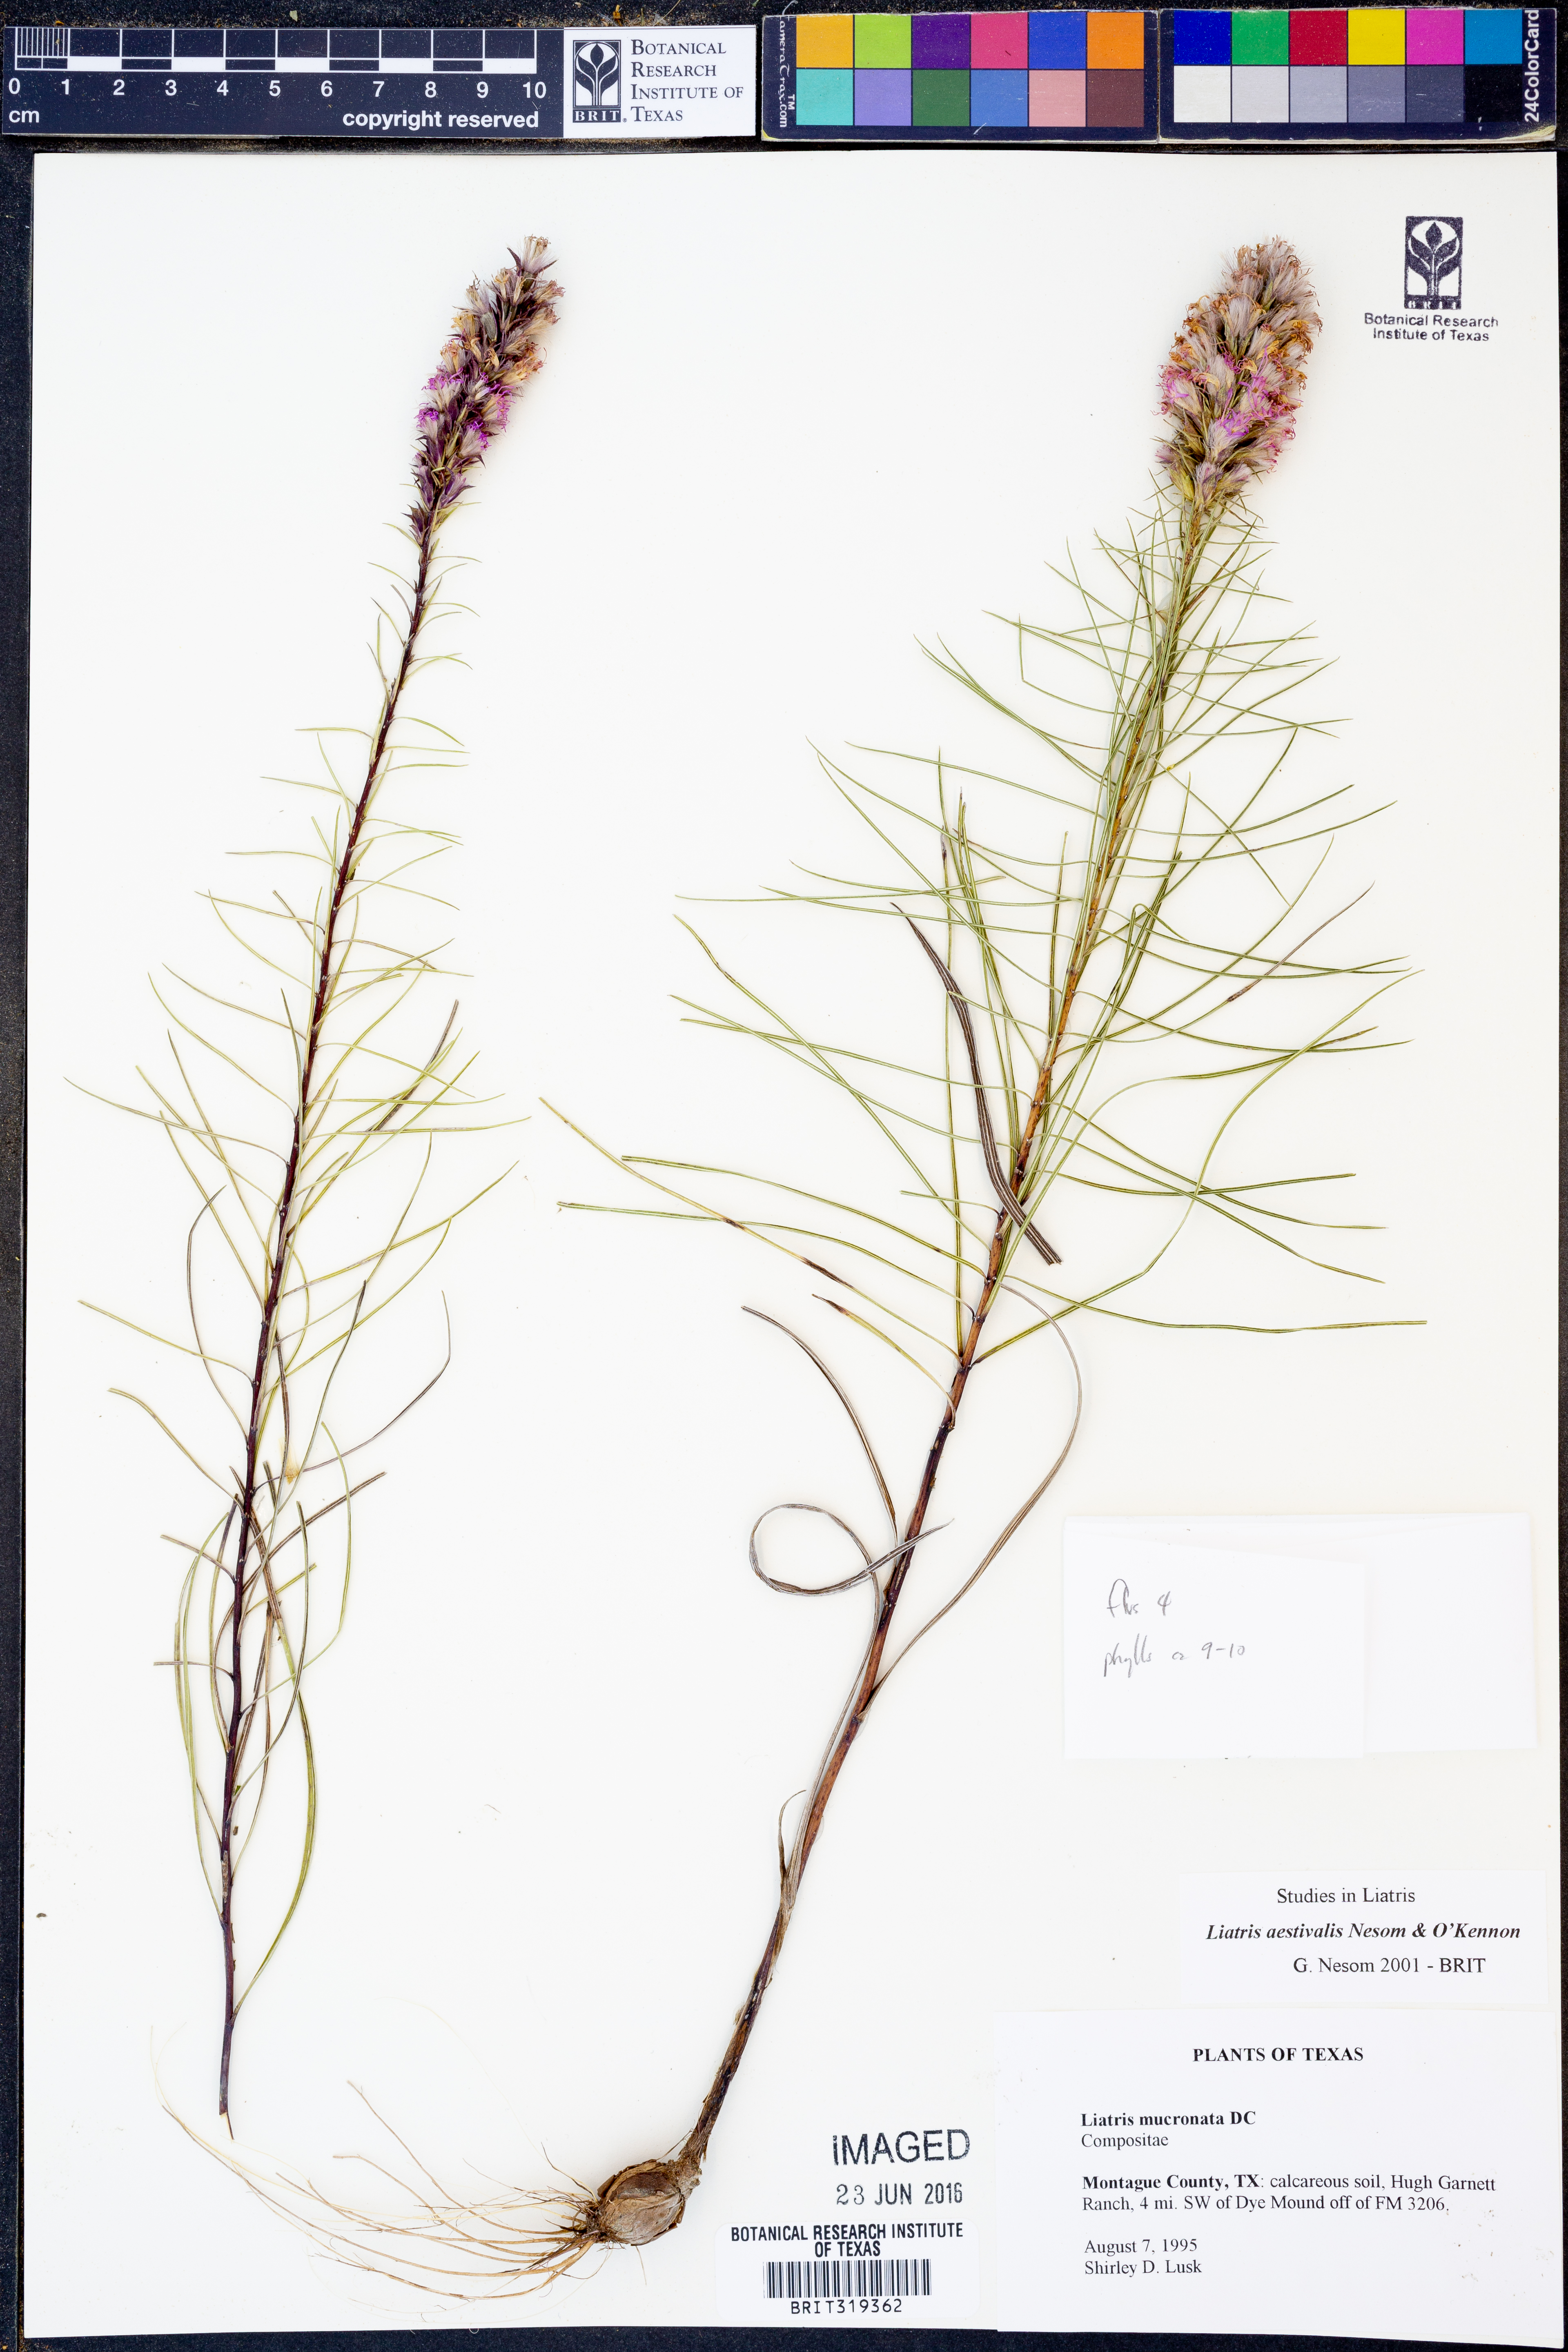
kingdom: Plantae
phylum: Tracheophyta
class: Magnoliopsida
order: Asterales
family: Asteraceae
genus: Liatris
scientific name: Liatris aestivalis
